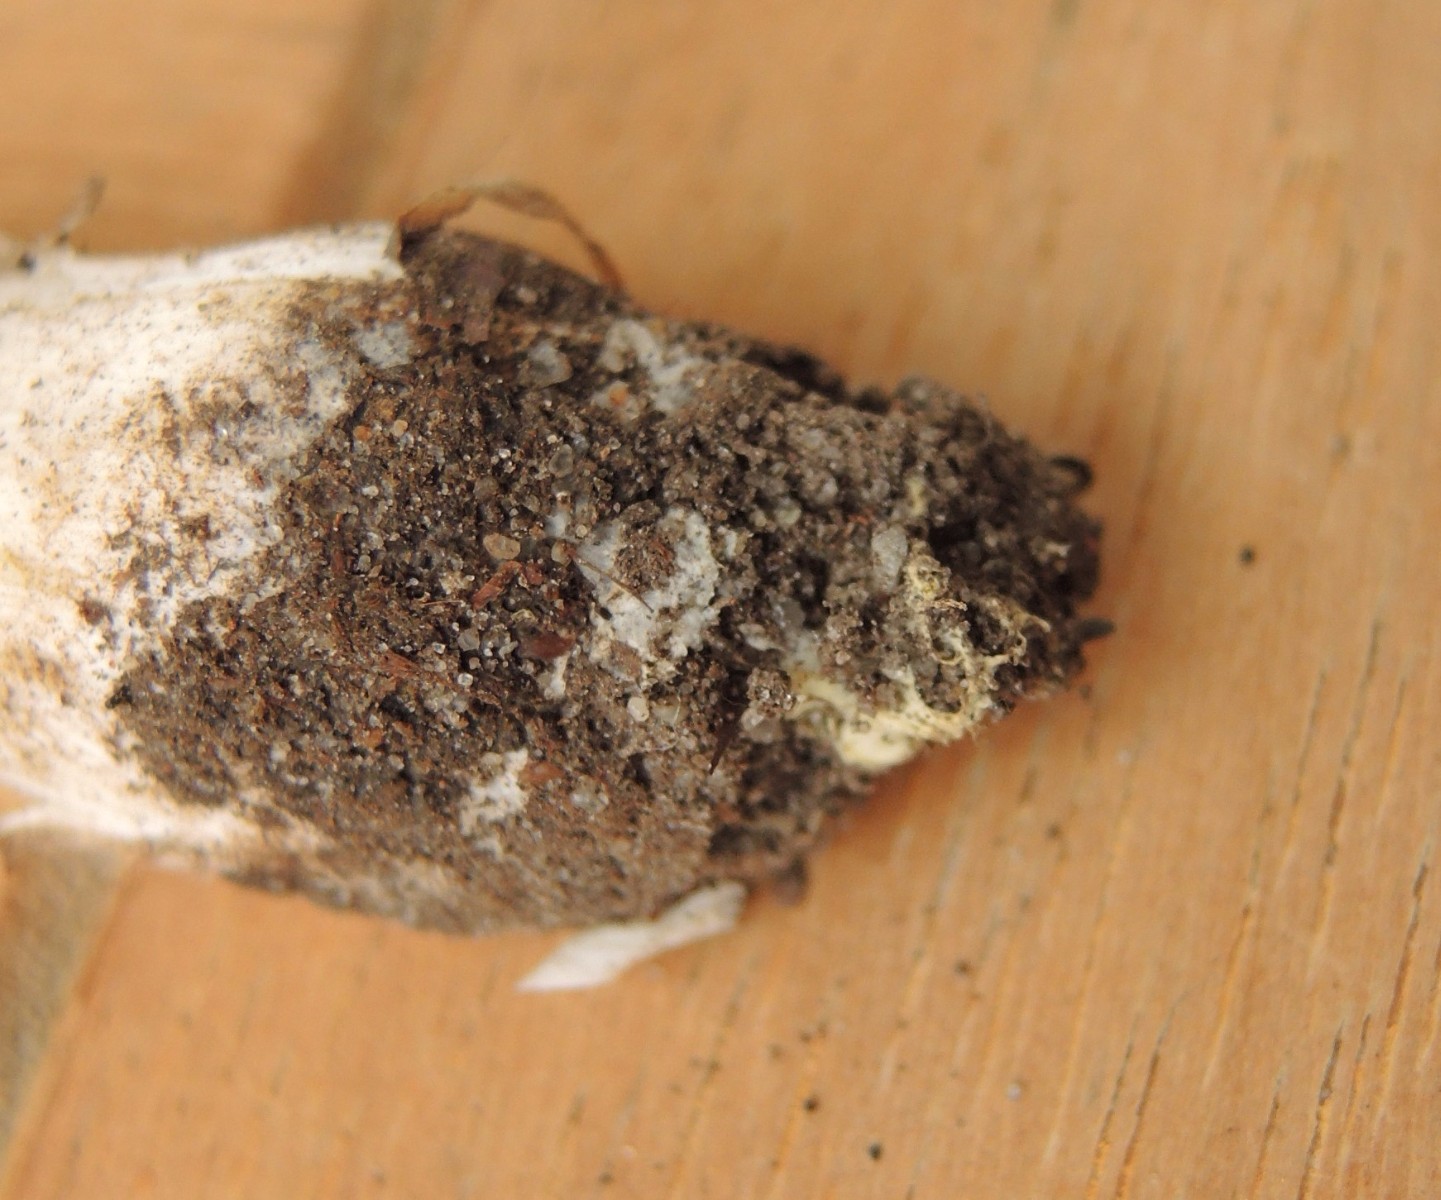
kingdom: Fungi
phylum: Basidiomycota
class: Agaricomycetes
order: Agaricales
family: Tricholomataceae
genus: Tricholoma
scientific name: Tricholoma orirubens
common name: rødbladet ridderhat
